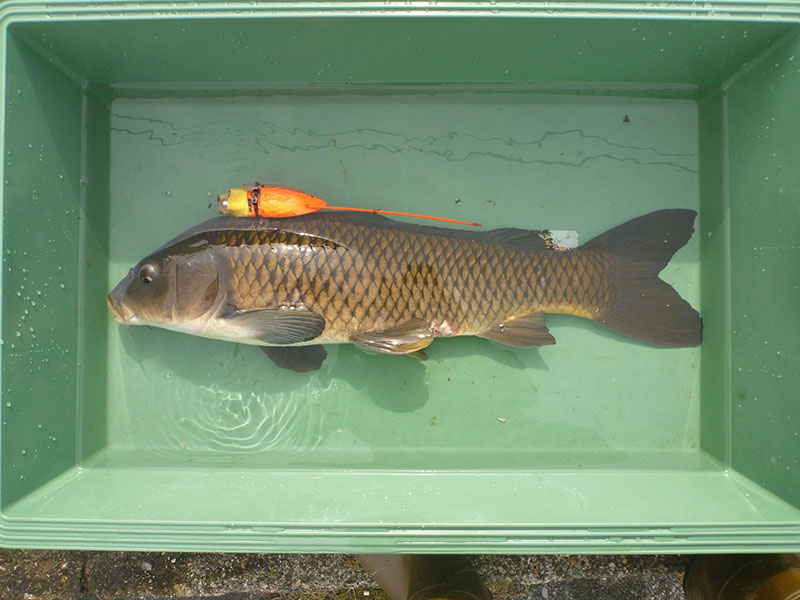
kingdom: Animalia
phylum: Chordata
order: Cypriniformes
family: Cyprinidae
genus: Cyprinus
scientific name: Cyprinus carpio
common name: コイ
